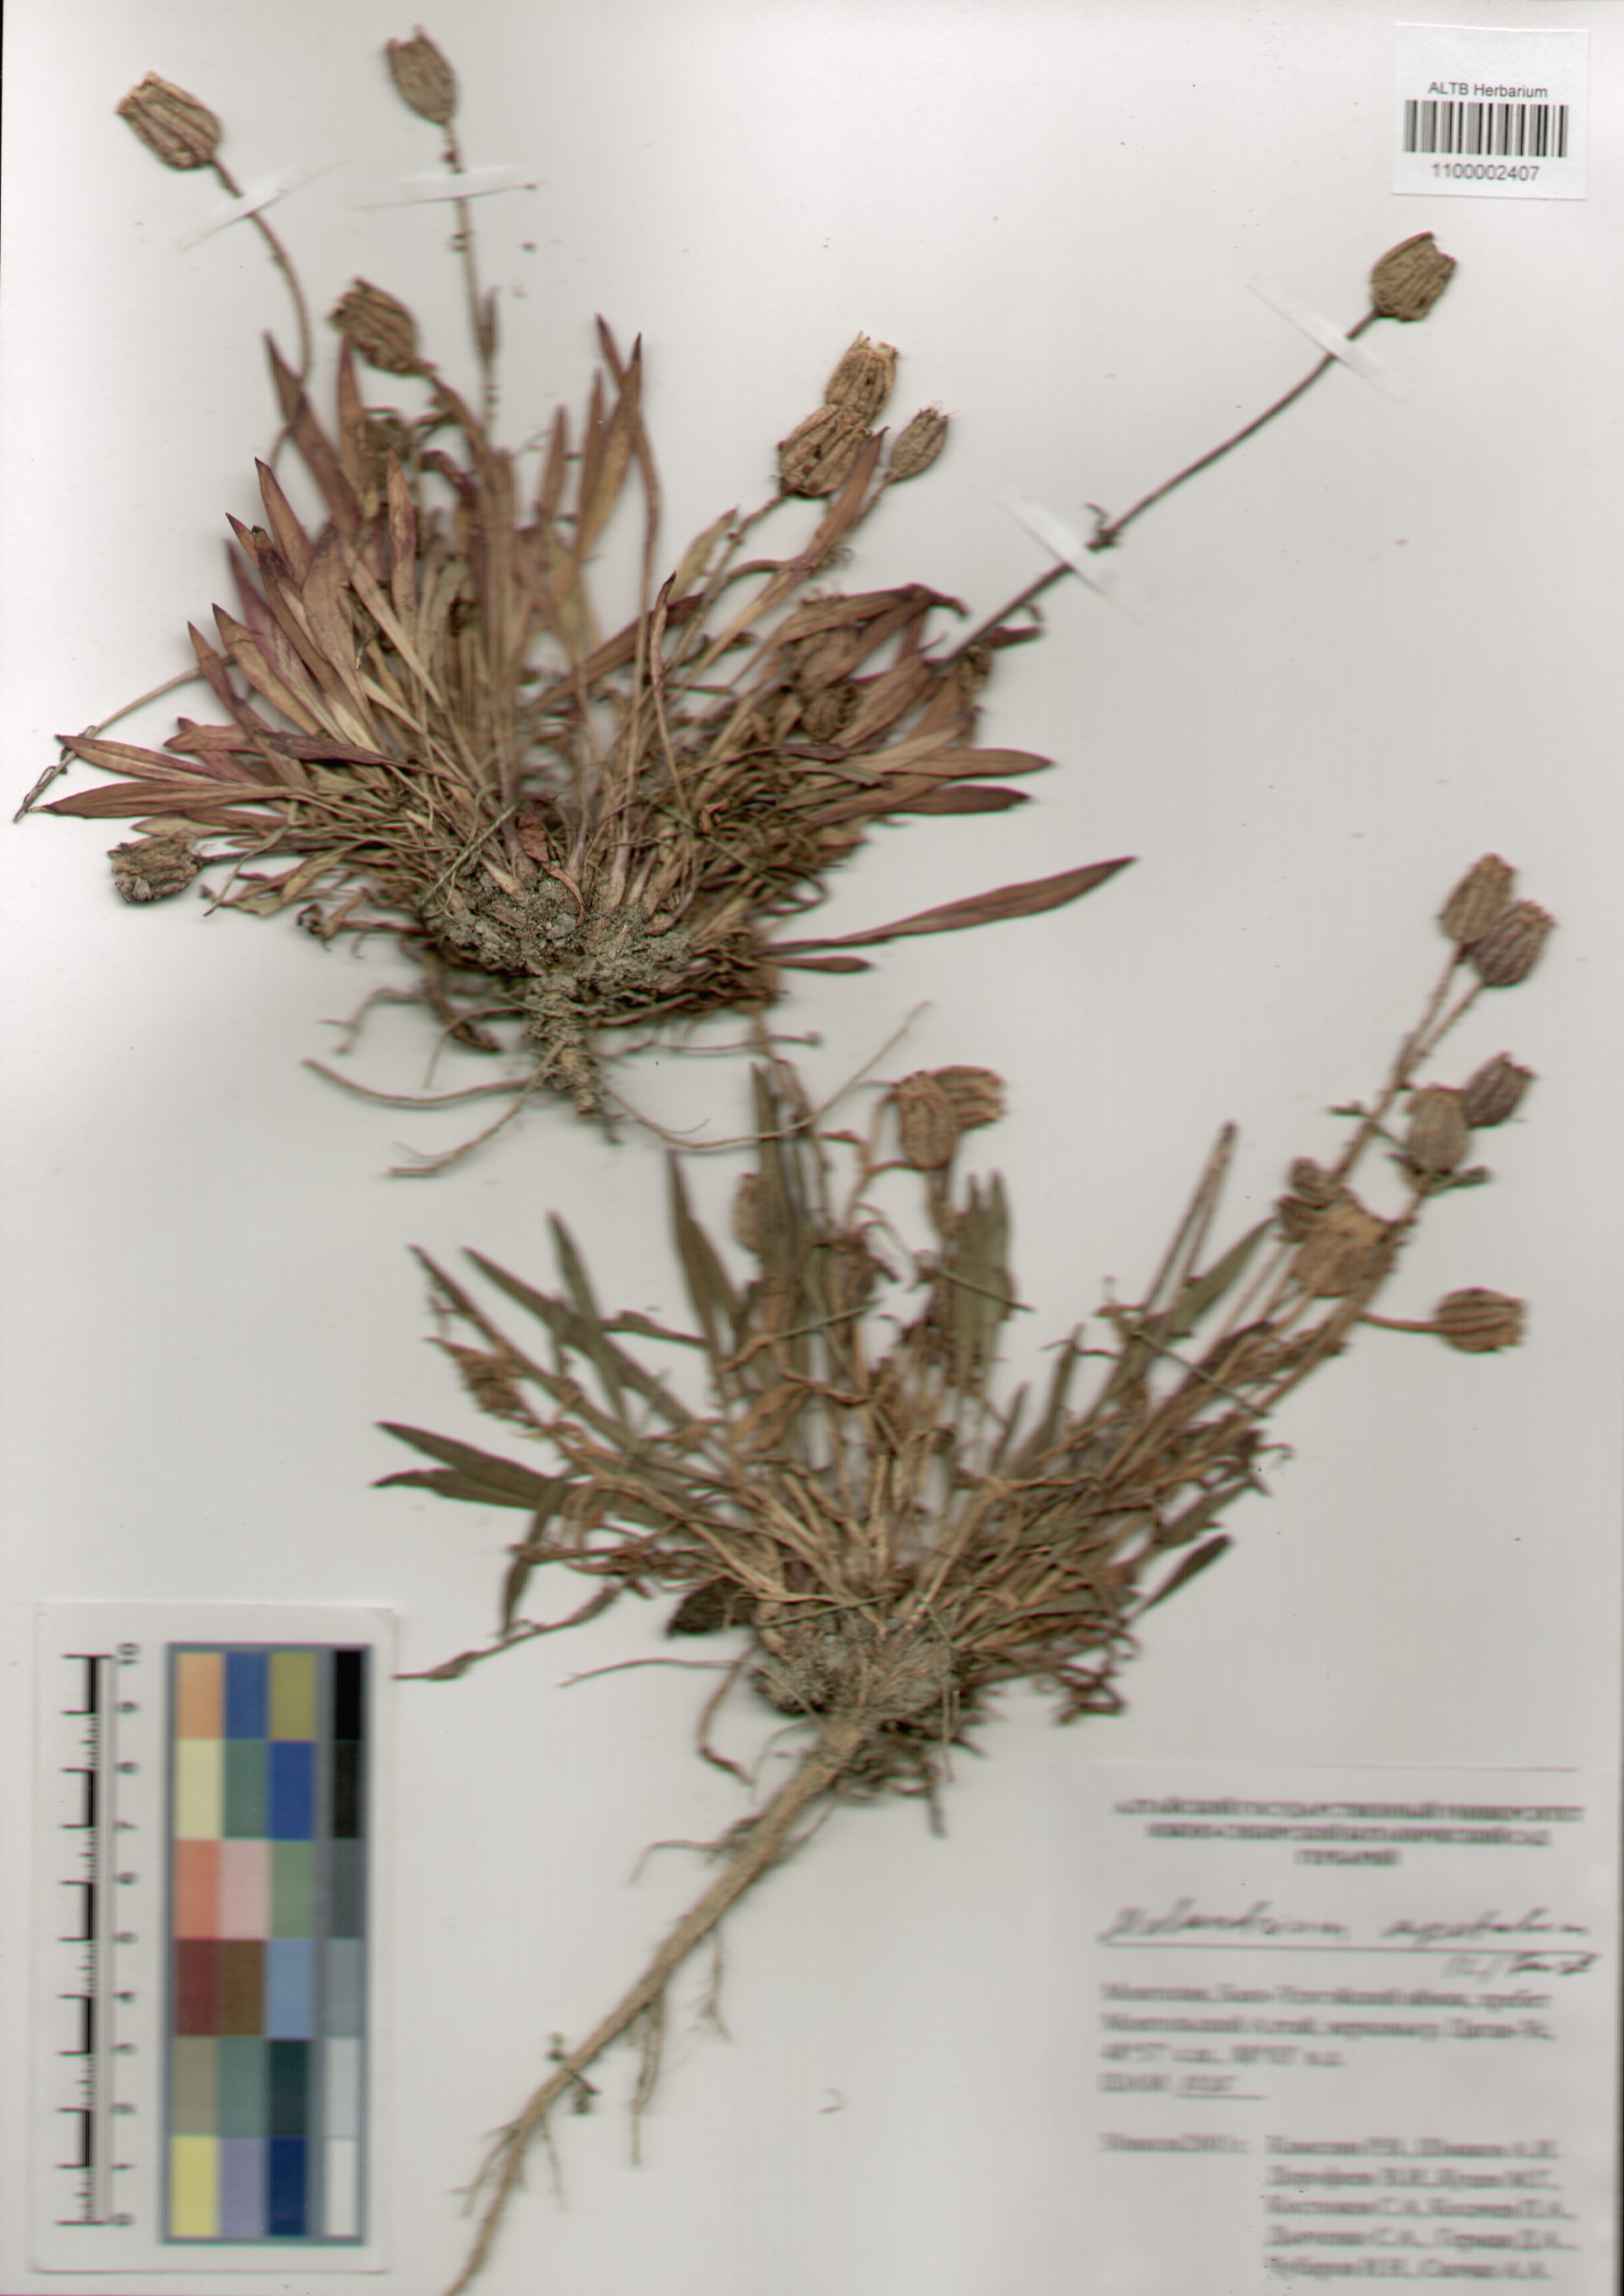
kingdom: Plantae
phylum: Tracheophyta
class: Magnoliopsida
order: Caryophyllales
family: Caryophyllaceae
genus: Silene
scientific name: Silene wahlbergella
